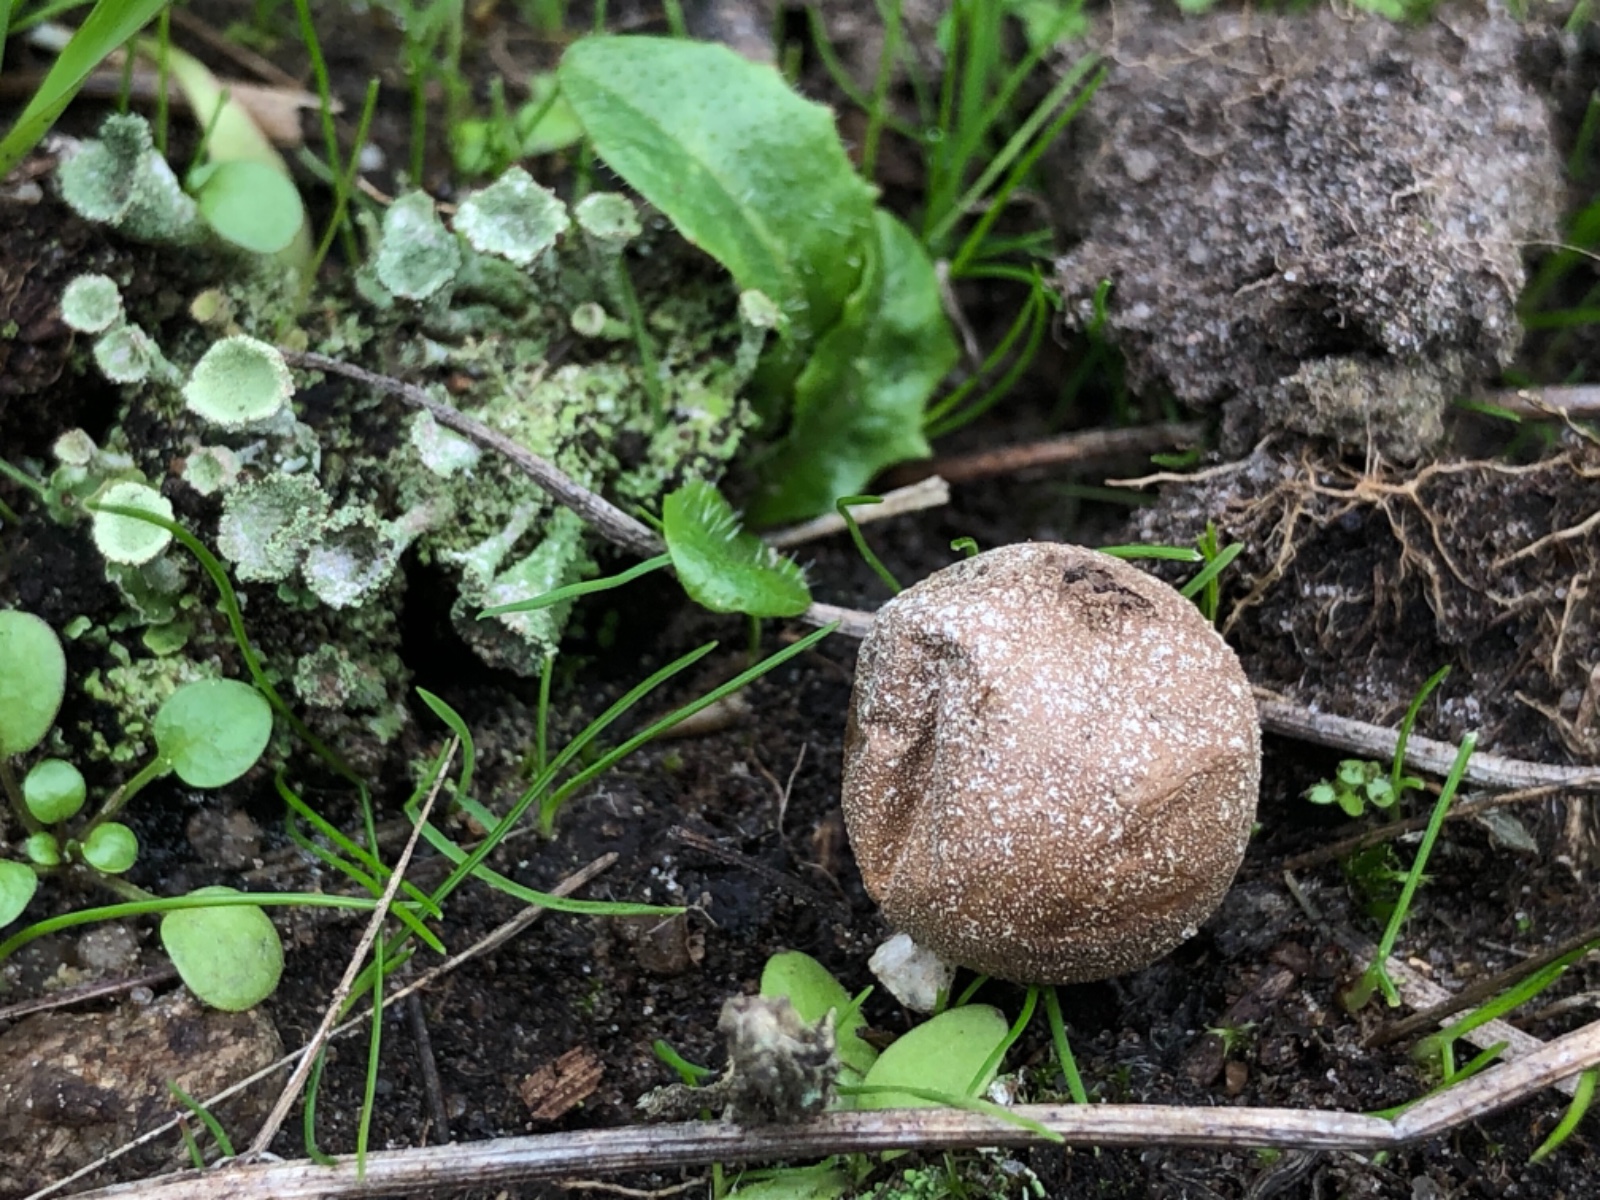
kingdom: Fungi
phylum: Basidiomycota
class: Agaricomycetes
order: Agaricales
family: Lycoperdaceae
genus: Bovista
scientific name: Bovista
